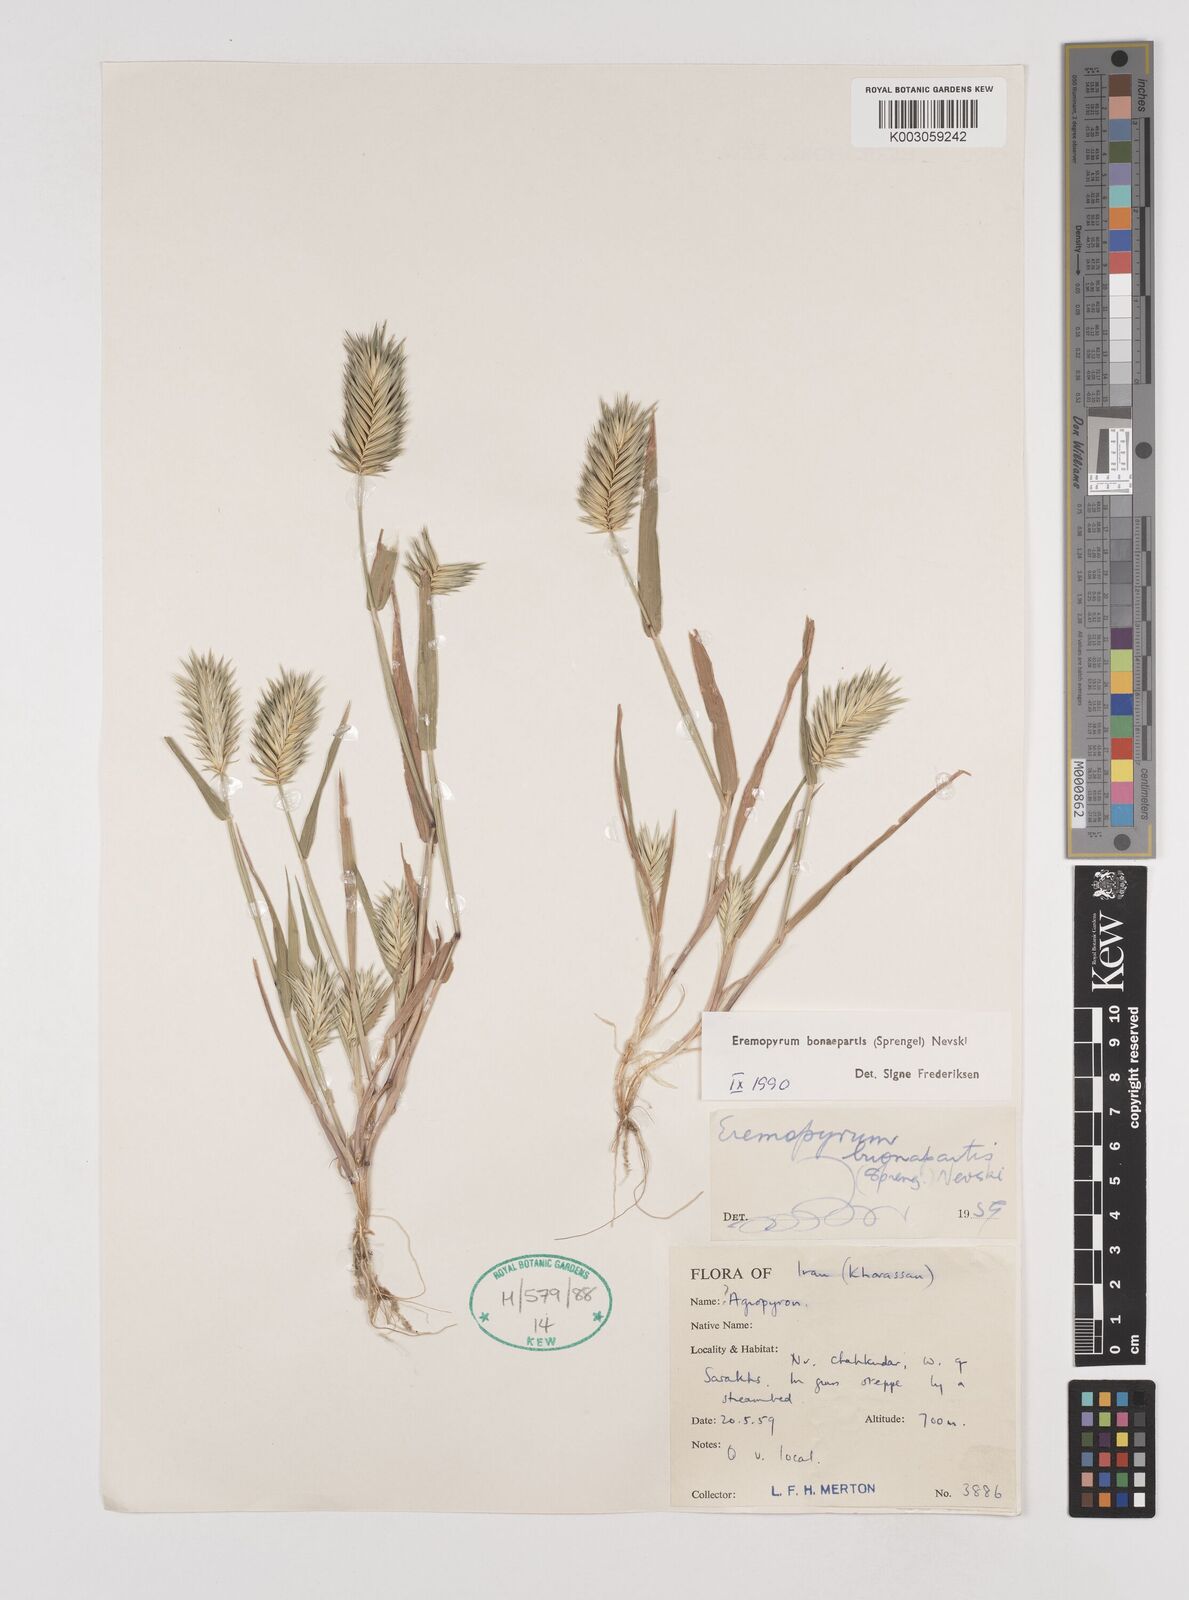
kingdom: Plantae
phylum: Tracheophyta
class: Liliopsida
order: Poales
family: Poaceae
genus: Eremopyrum
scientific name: Eremopyrum bonaepartis
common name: Tapertip false wheatgrass
